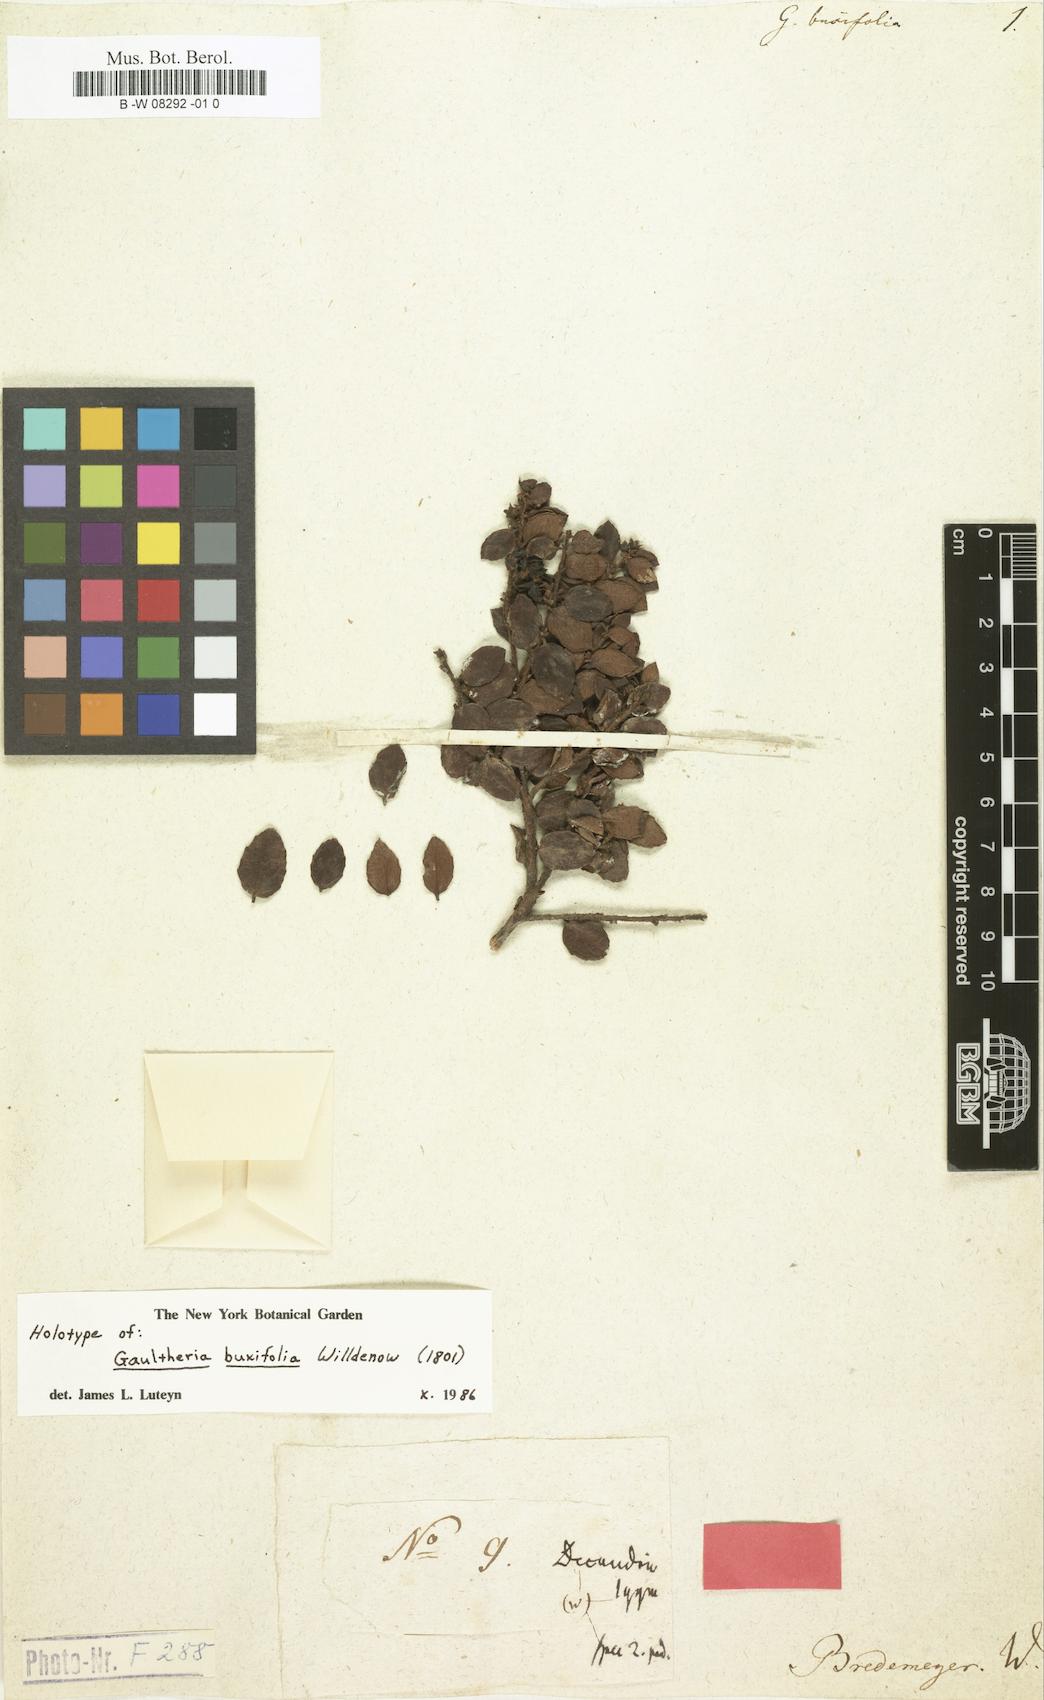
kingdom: Plantae
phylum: Tracheophyta
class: Magnoliopsida
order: Ericales
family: Ericaceae
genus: Gaultheria
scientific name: Gaultheria buxifolia
